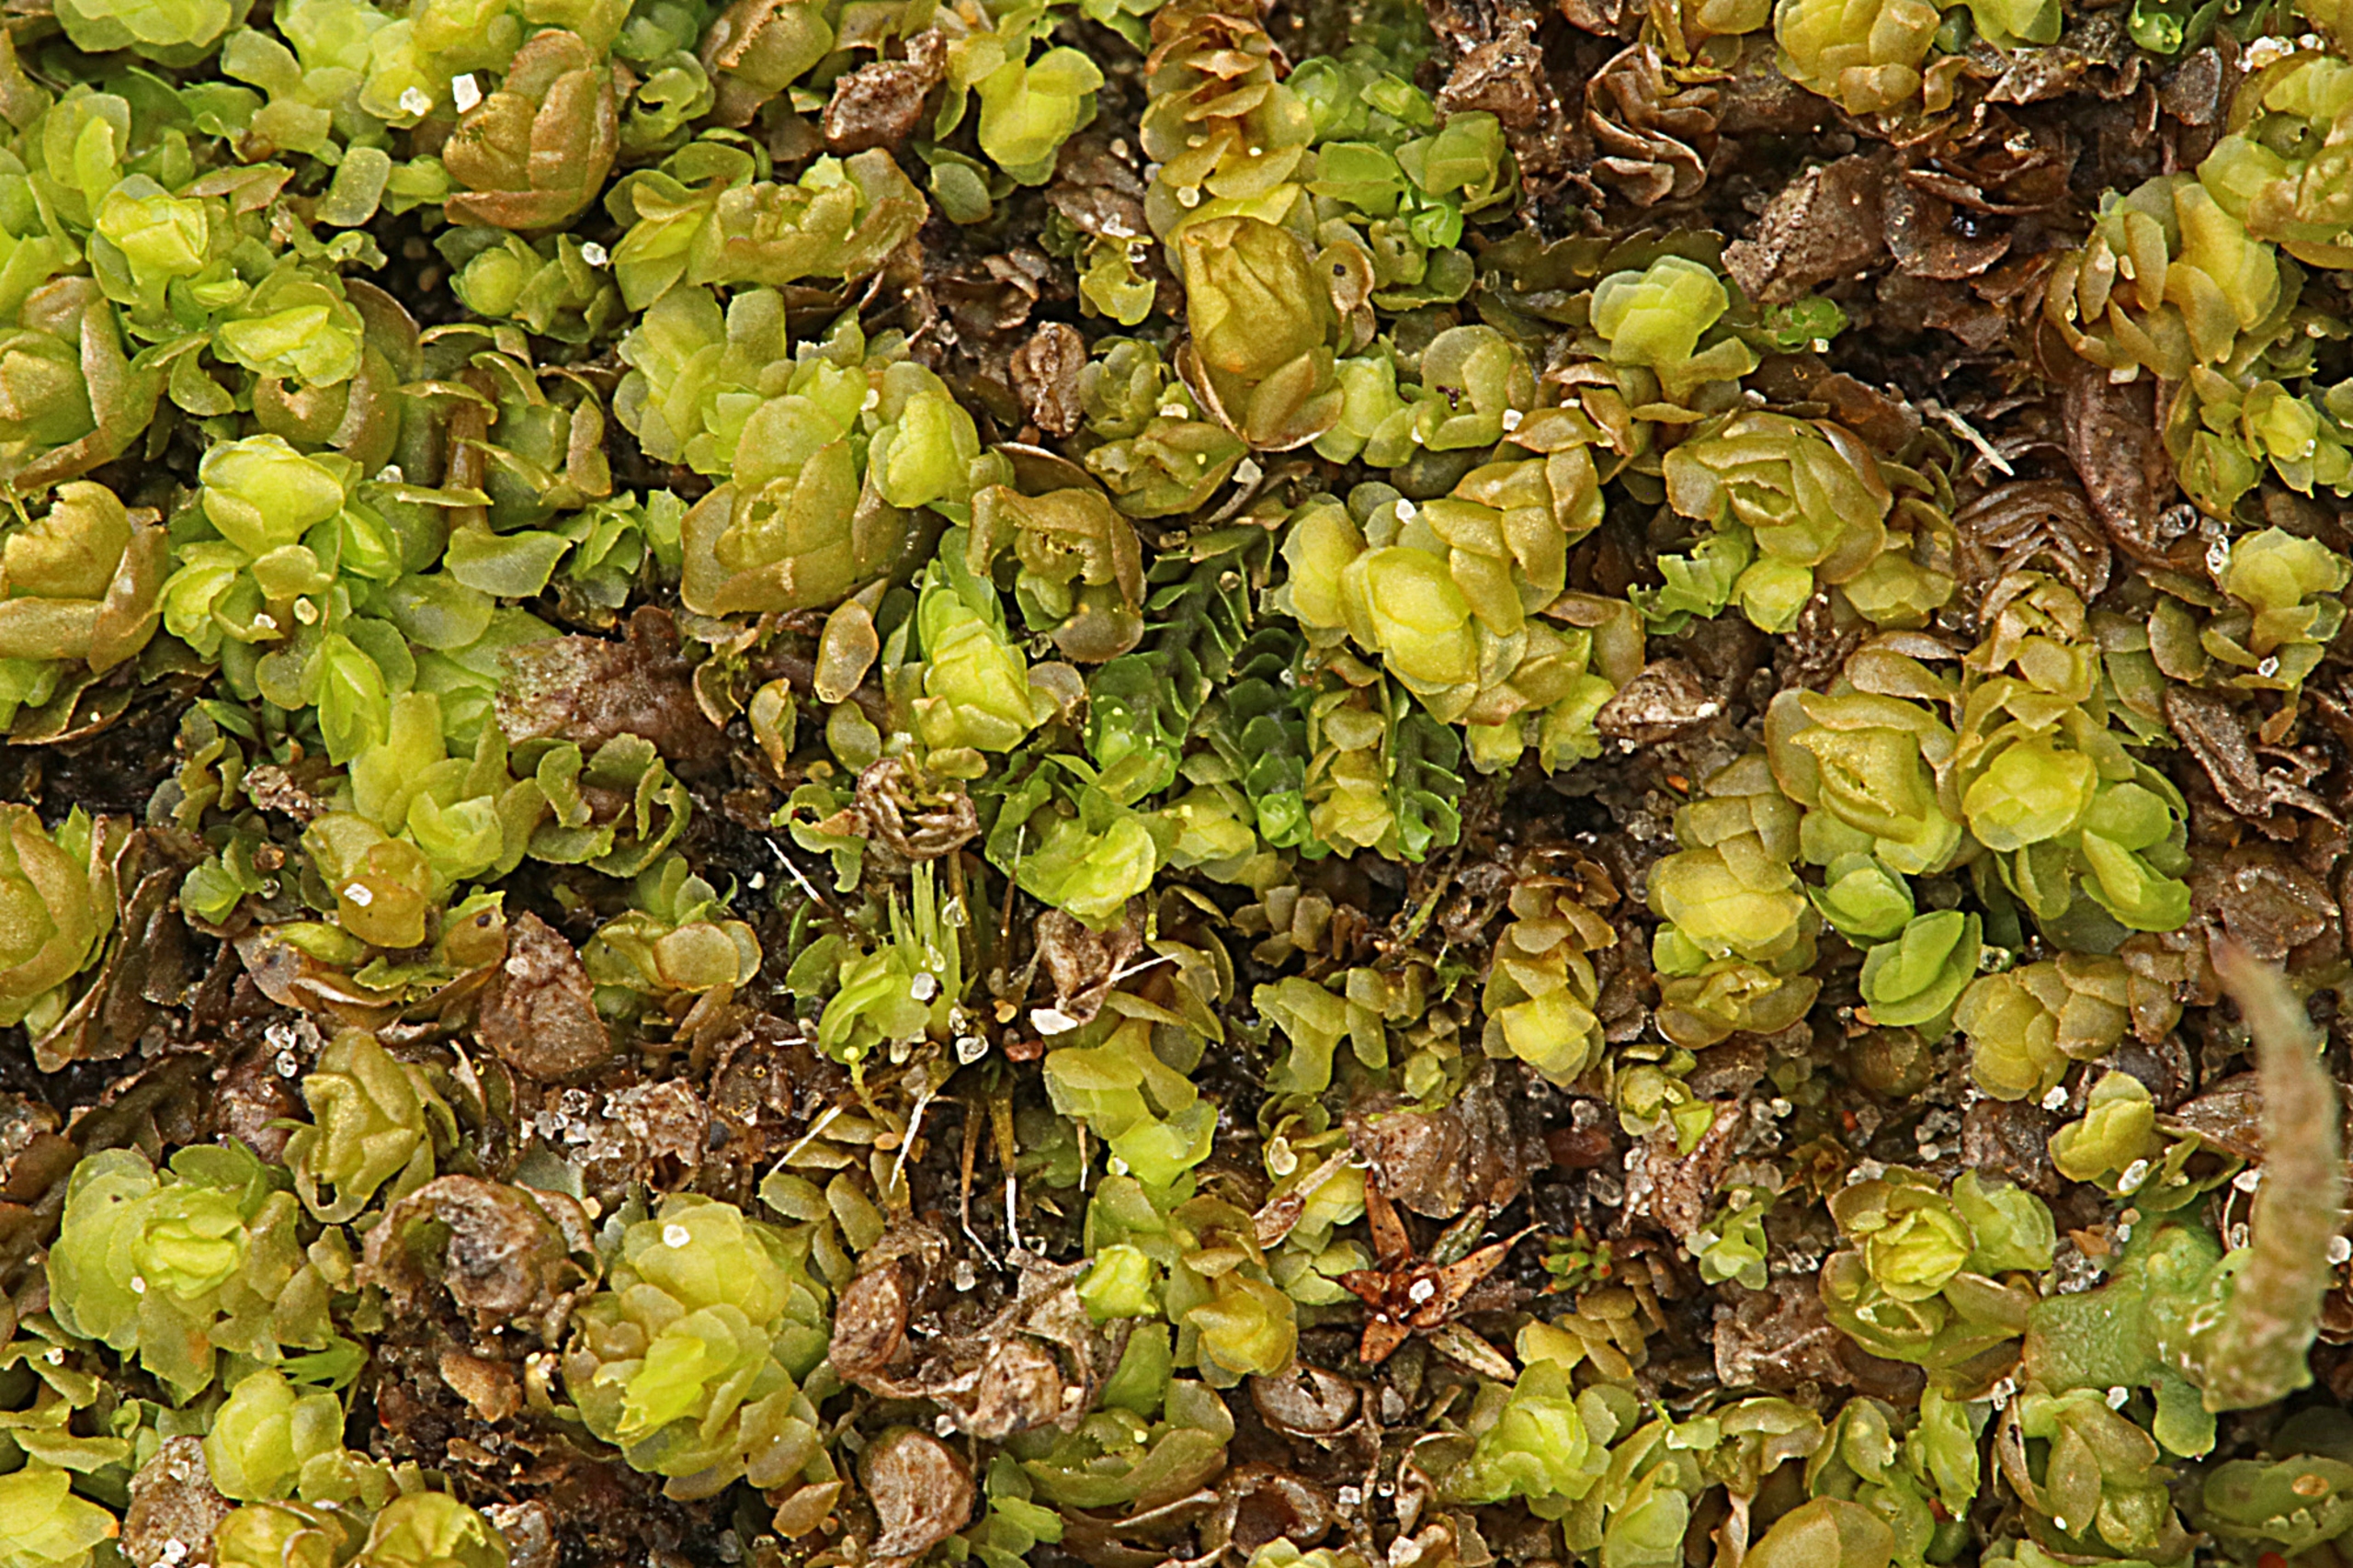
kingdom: Plantae
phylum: Marchantiophyta
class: Jungermanniopsida
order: Jungermanniales
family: Scapaniaceae
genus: Scapania
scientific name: Scapania compacta
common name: Tæt tveblad
